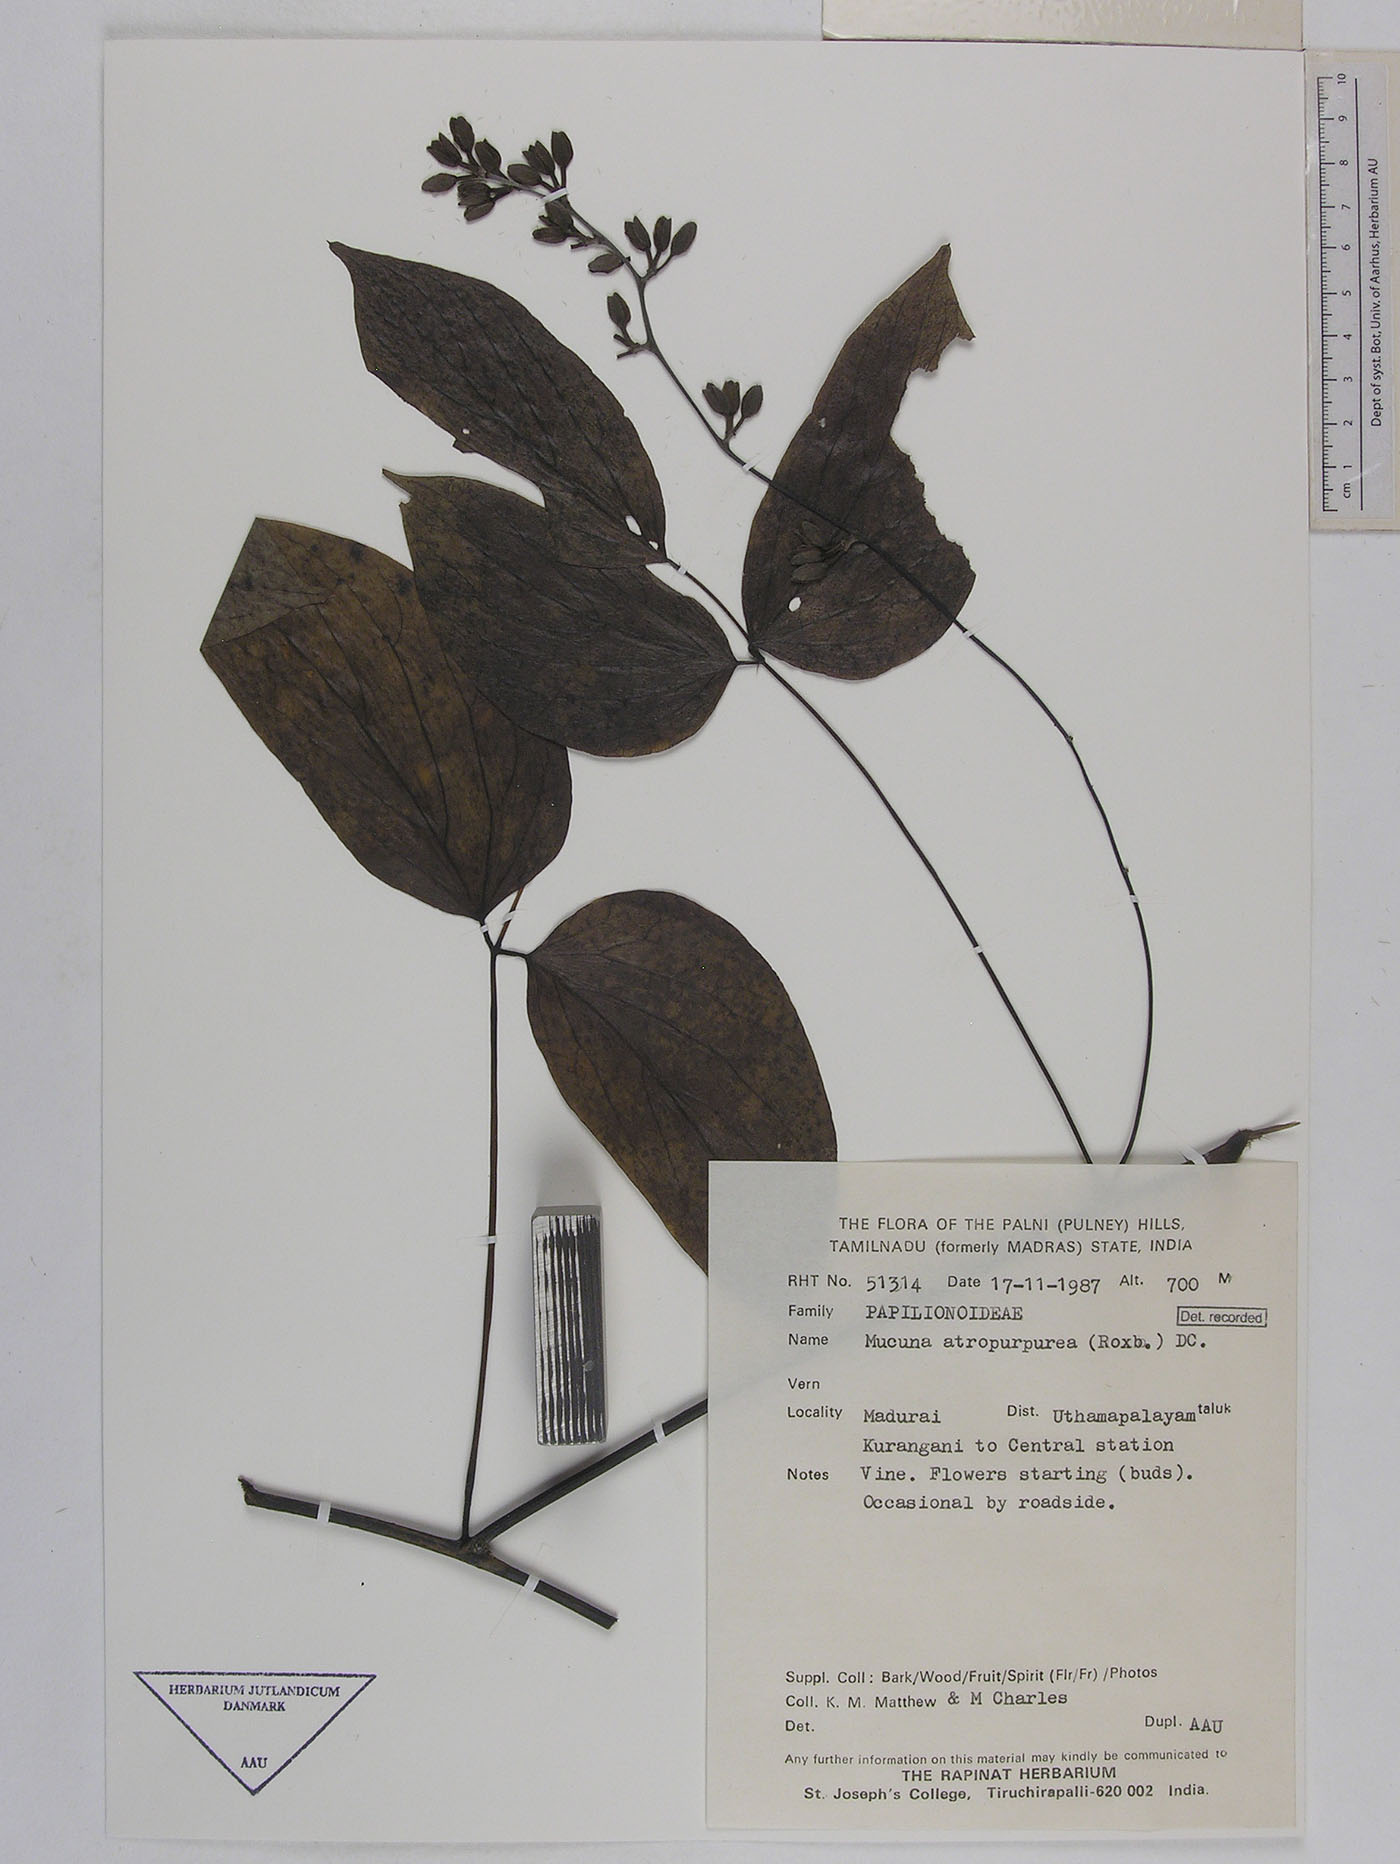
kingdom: Plantae
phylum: Tracheophyta
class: Magnoliopsida
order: Fabales
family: Fabaceae
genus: Mucuna
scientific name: Mucuna atropurpurea
